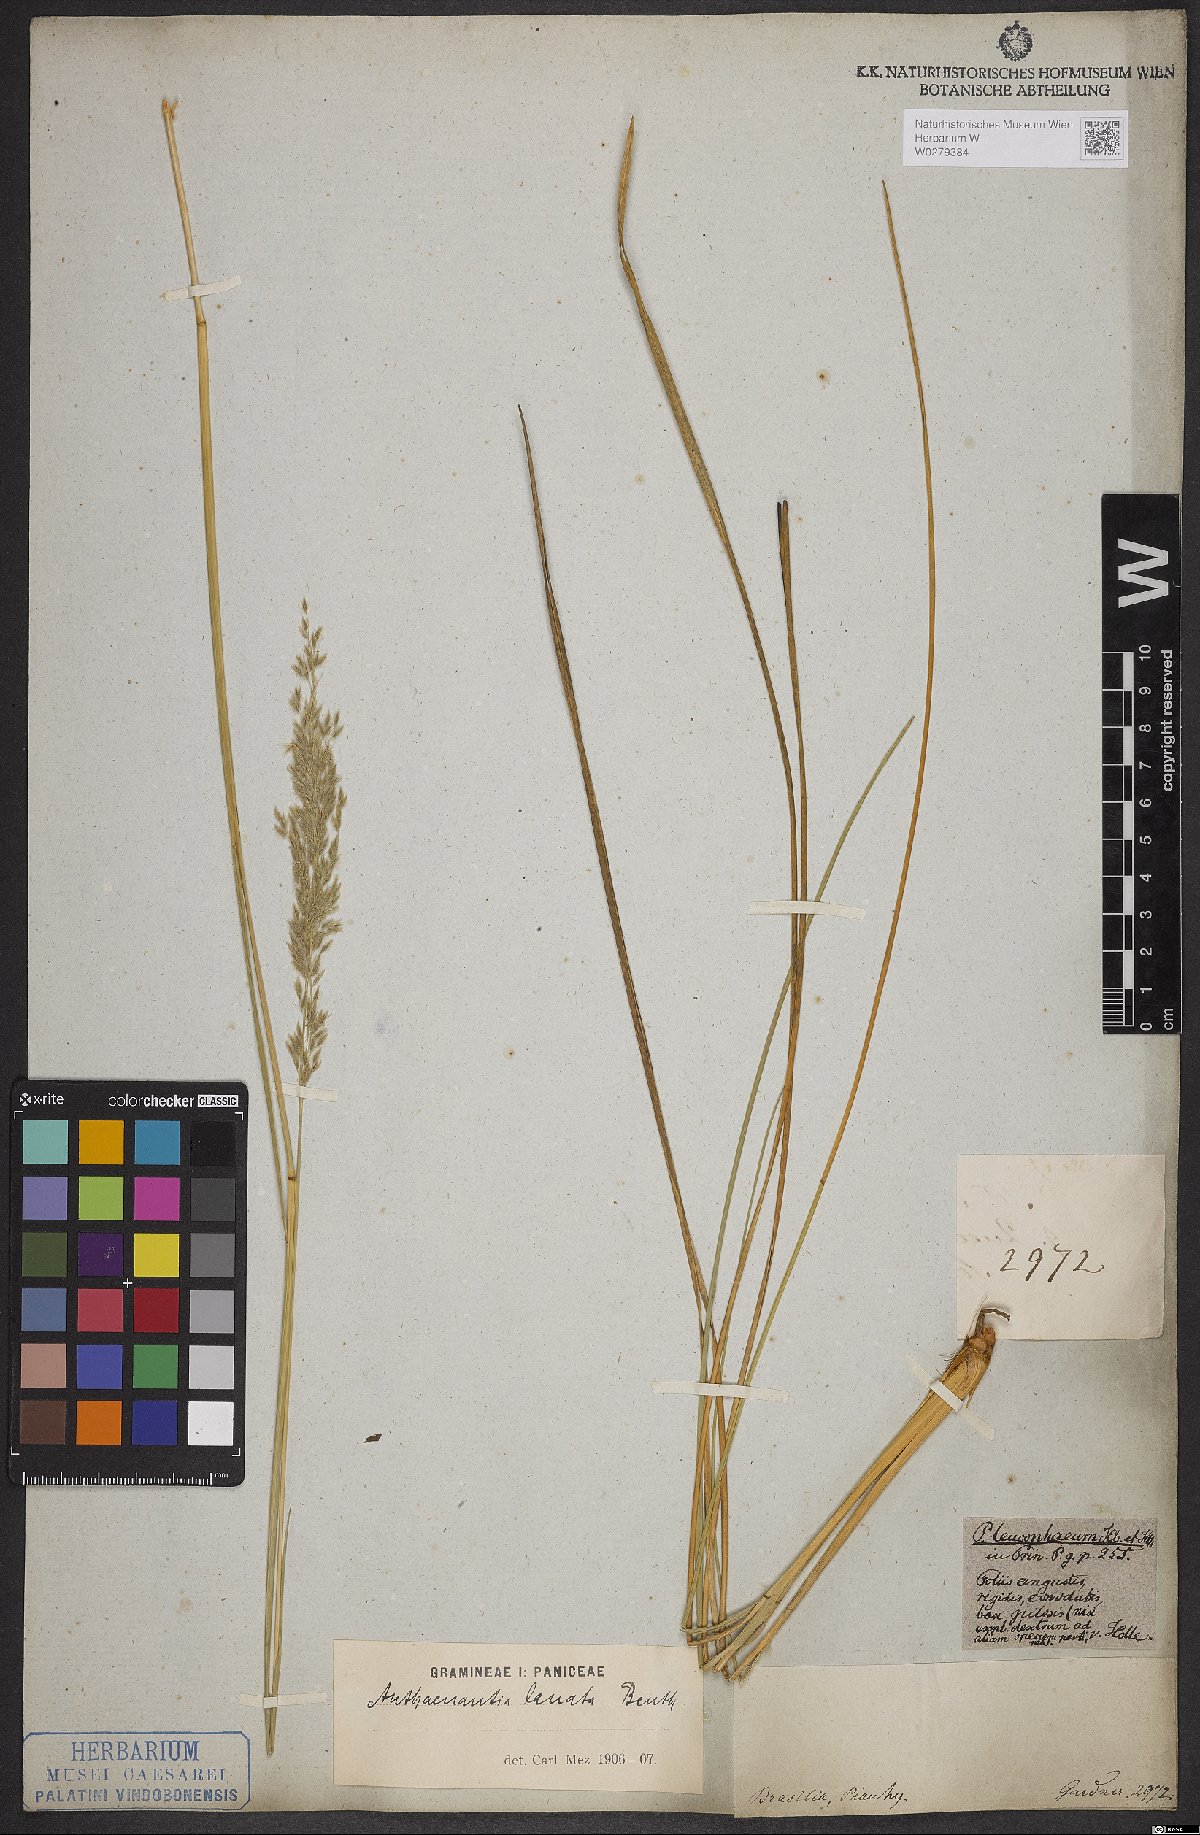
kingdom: Plantae
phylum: Tracheophyta
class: Liliopsida
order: Poales
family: Poaceae
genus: Anthaenantia
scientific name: Anthaenantia lanata
